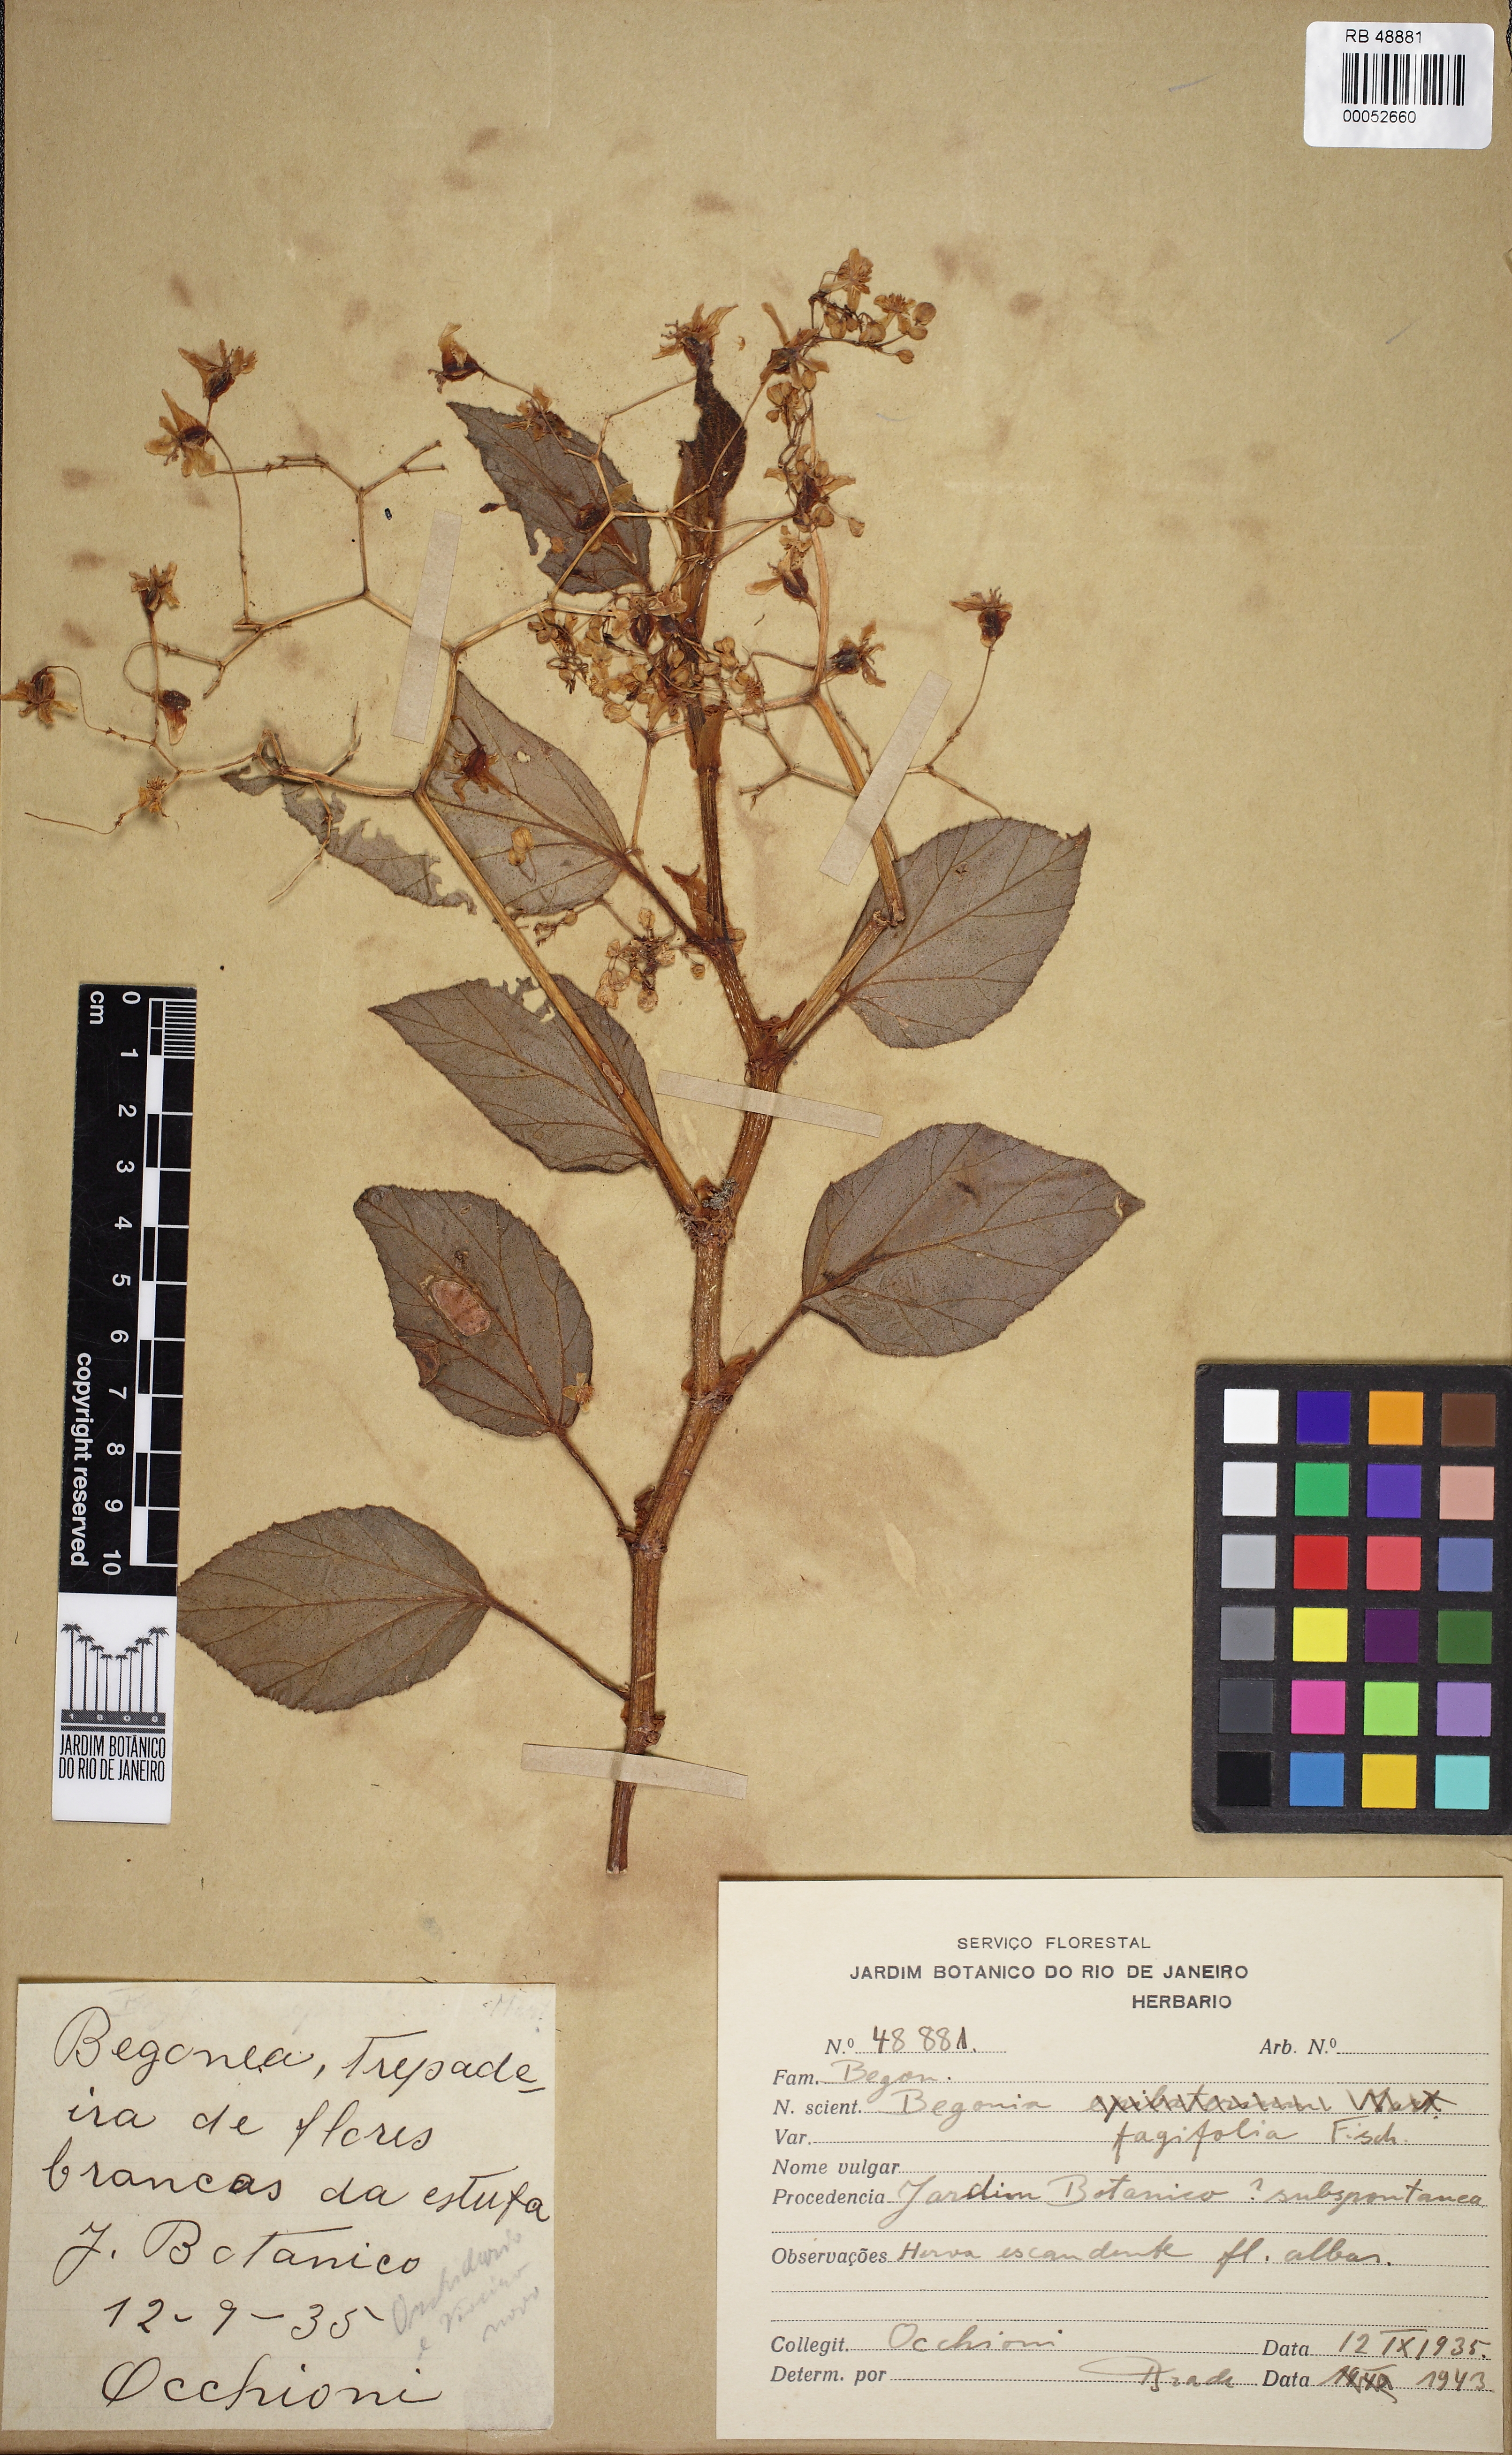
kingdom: Plantae
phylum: Tracheophyta
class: Magnoliopsida
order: Cucurbitales
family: Begoniaceae
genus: Begonia
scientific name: Begonia fagifolia
